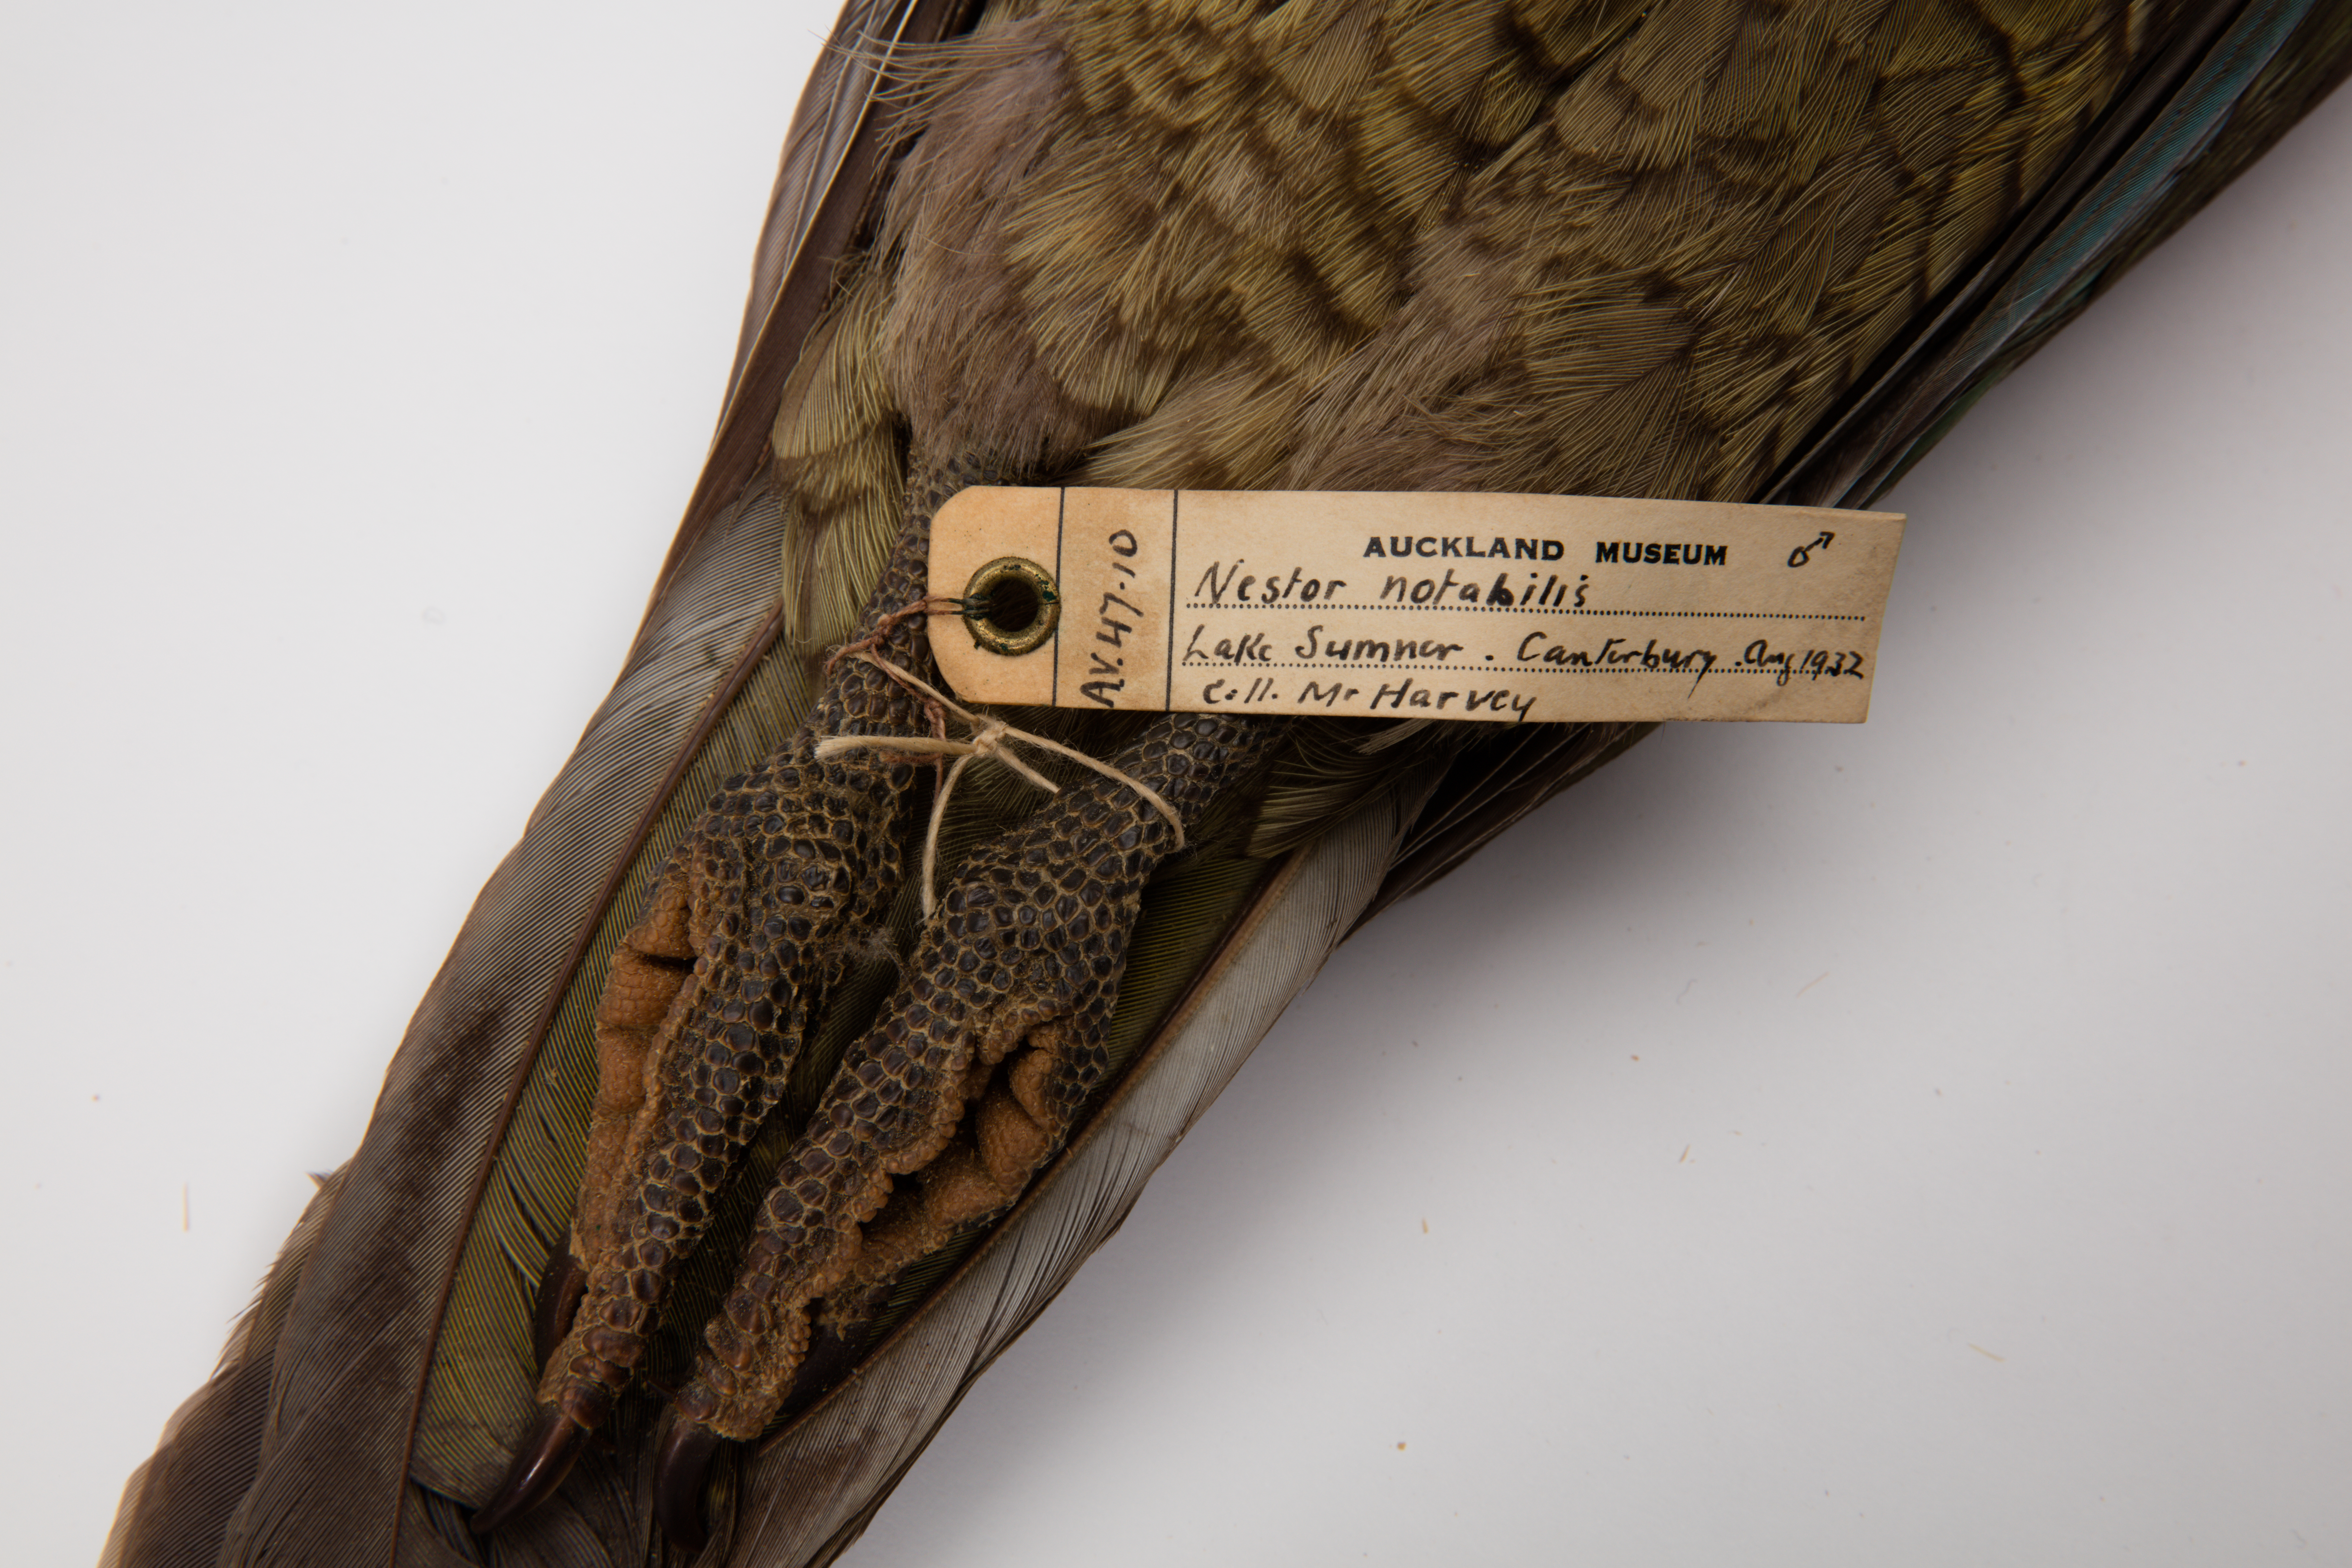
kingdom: Animalia
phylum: Chordata
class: Aves
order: Psittaciformes
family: Psittacidae
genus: Nestor
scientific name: Nestor notabilis
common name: Kea
